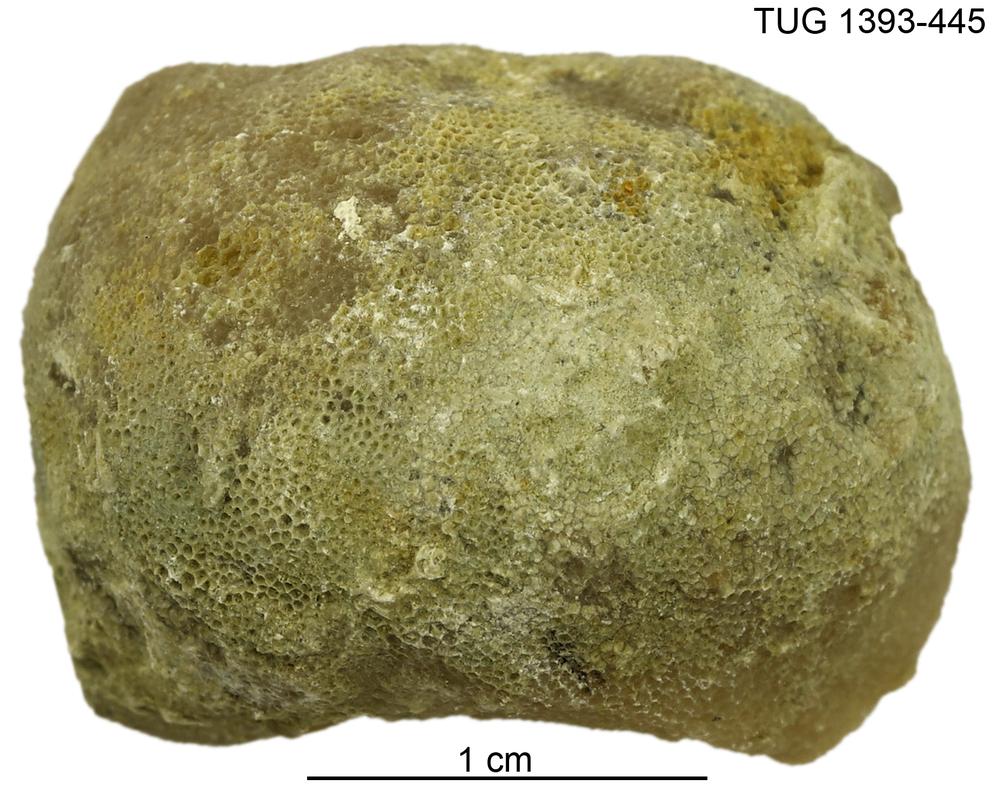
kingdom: Animalia
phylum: Bryozoa
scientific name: Bryozoa
